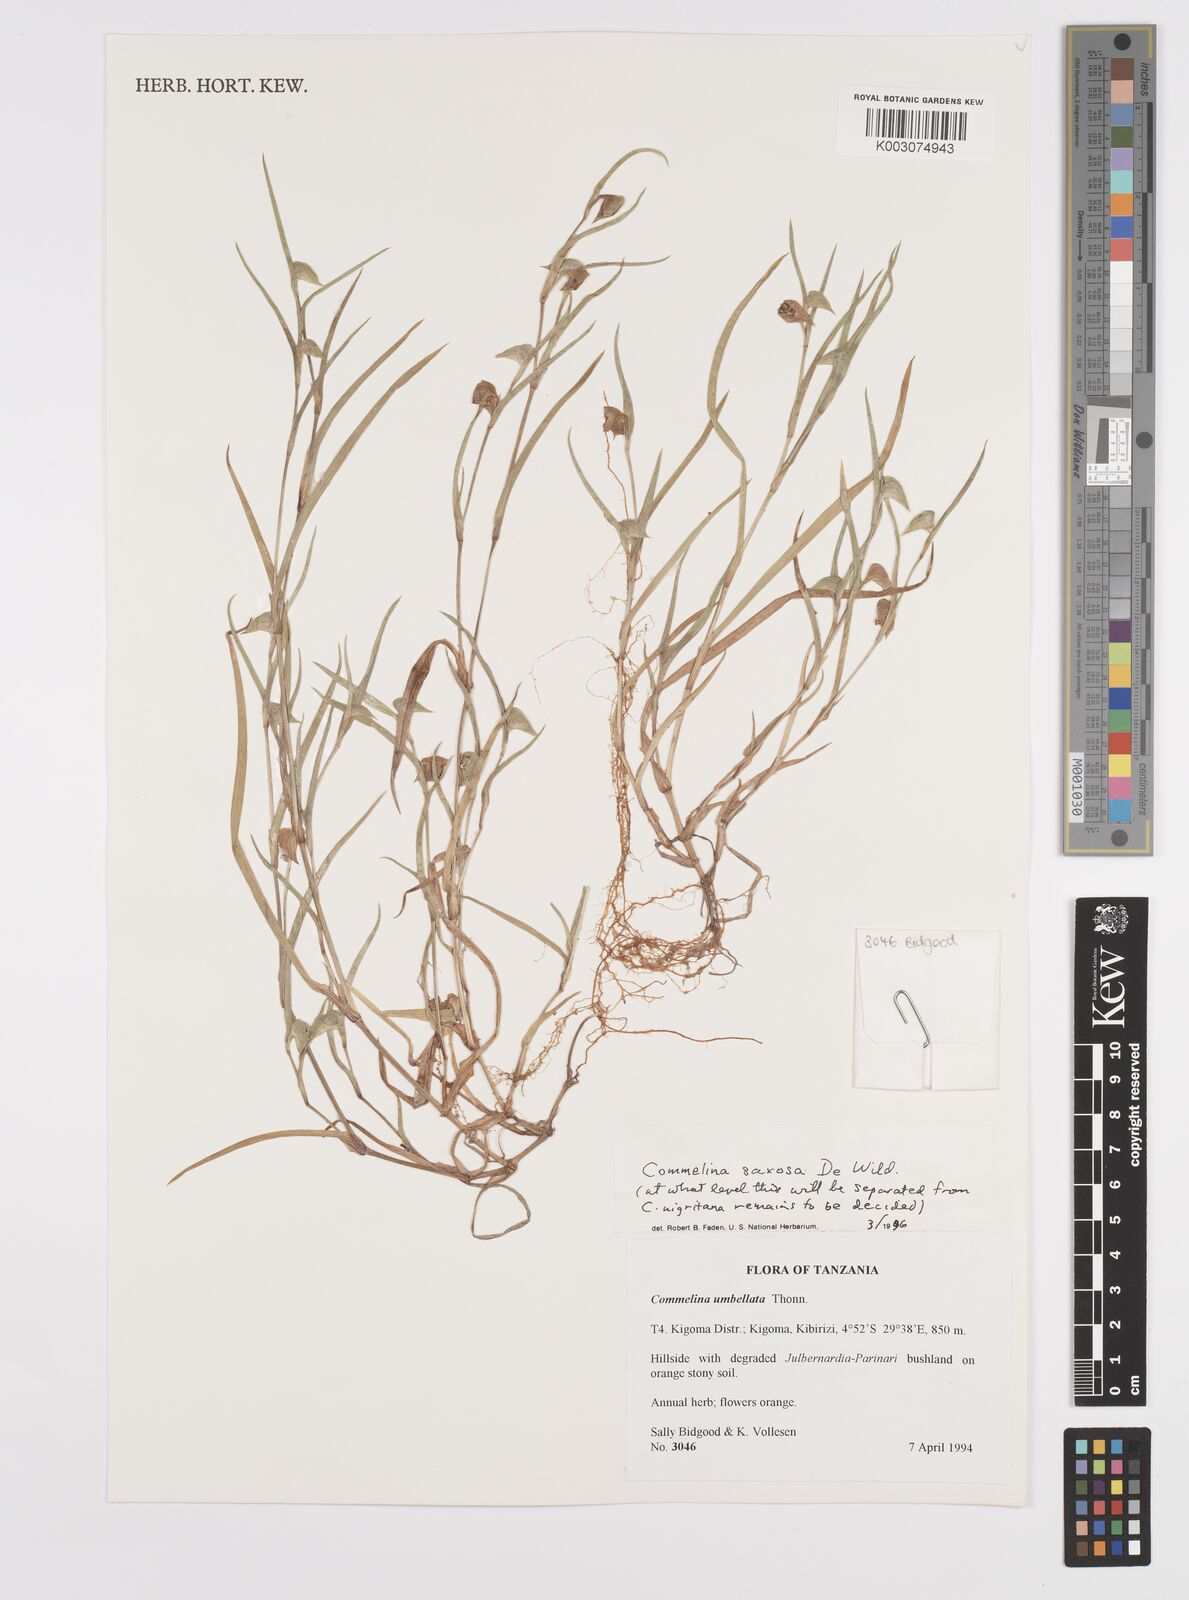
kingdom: Plantae
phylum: Tracheophyta
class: Liliopsida
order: Commelinales
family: Commelinaceae
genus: Commelina
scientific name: Commelina saxosa
